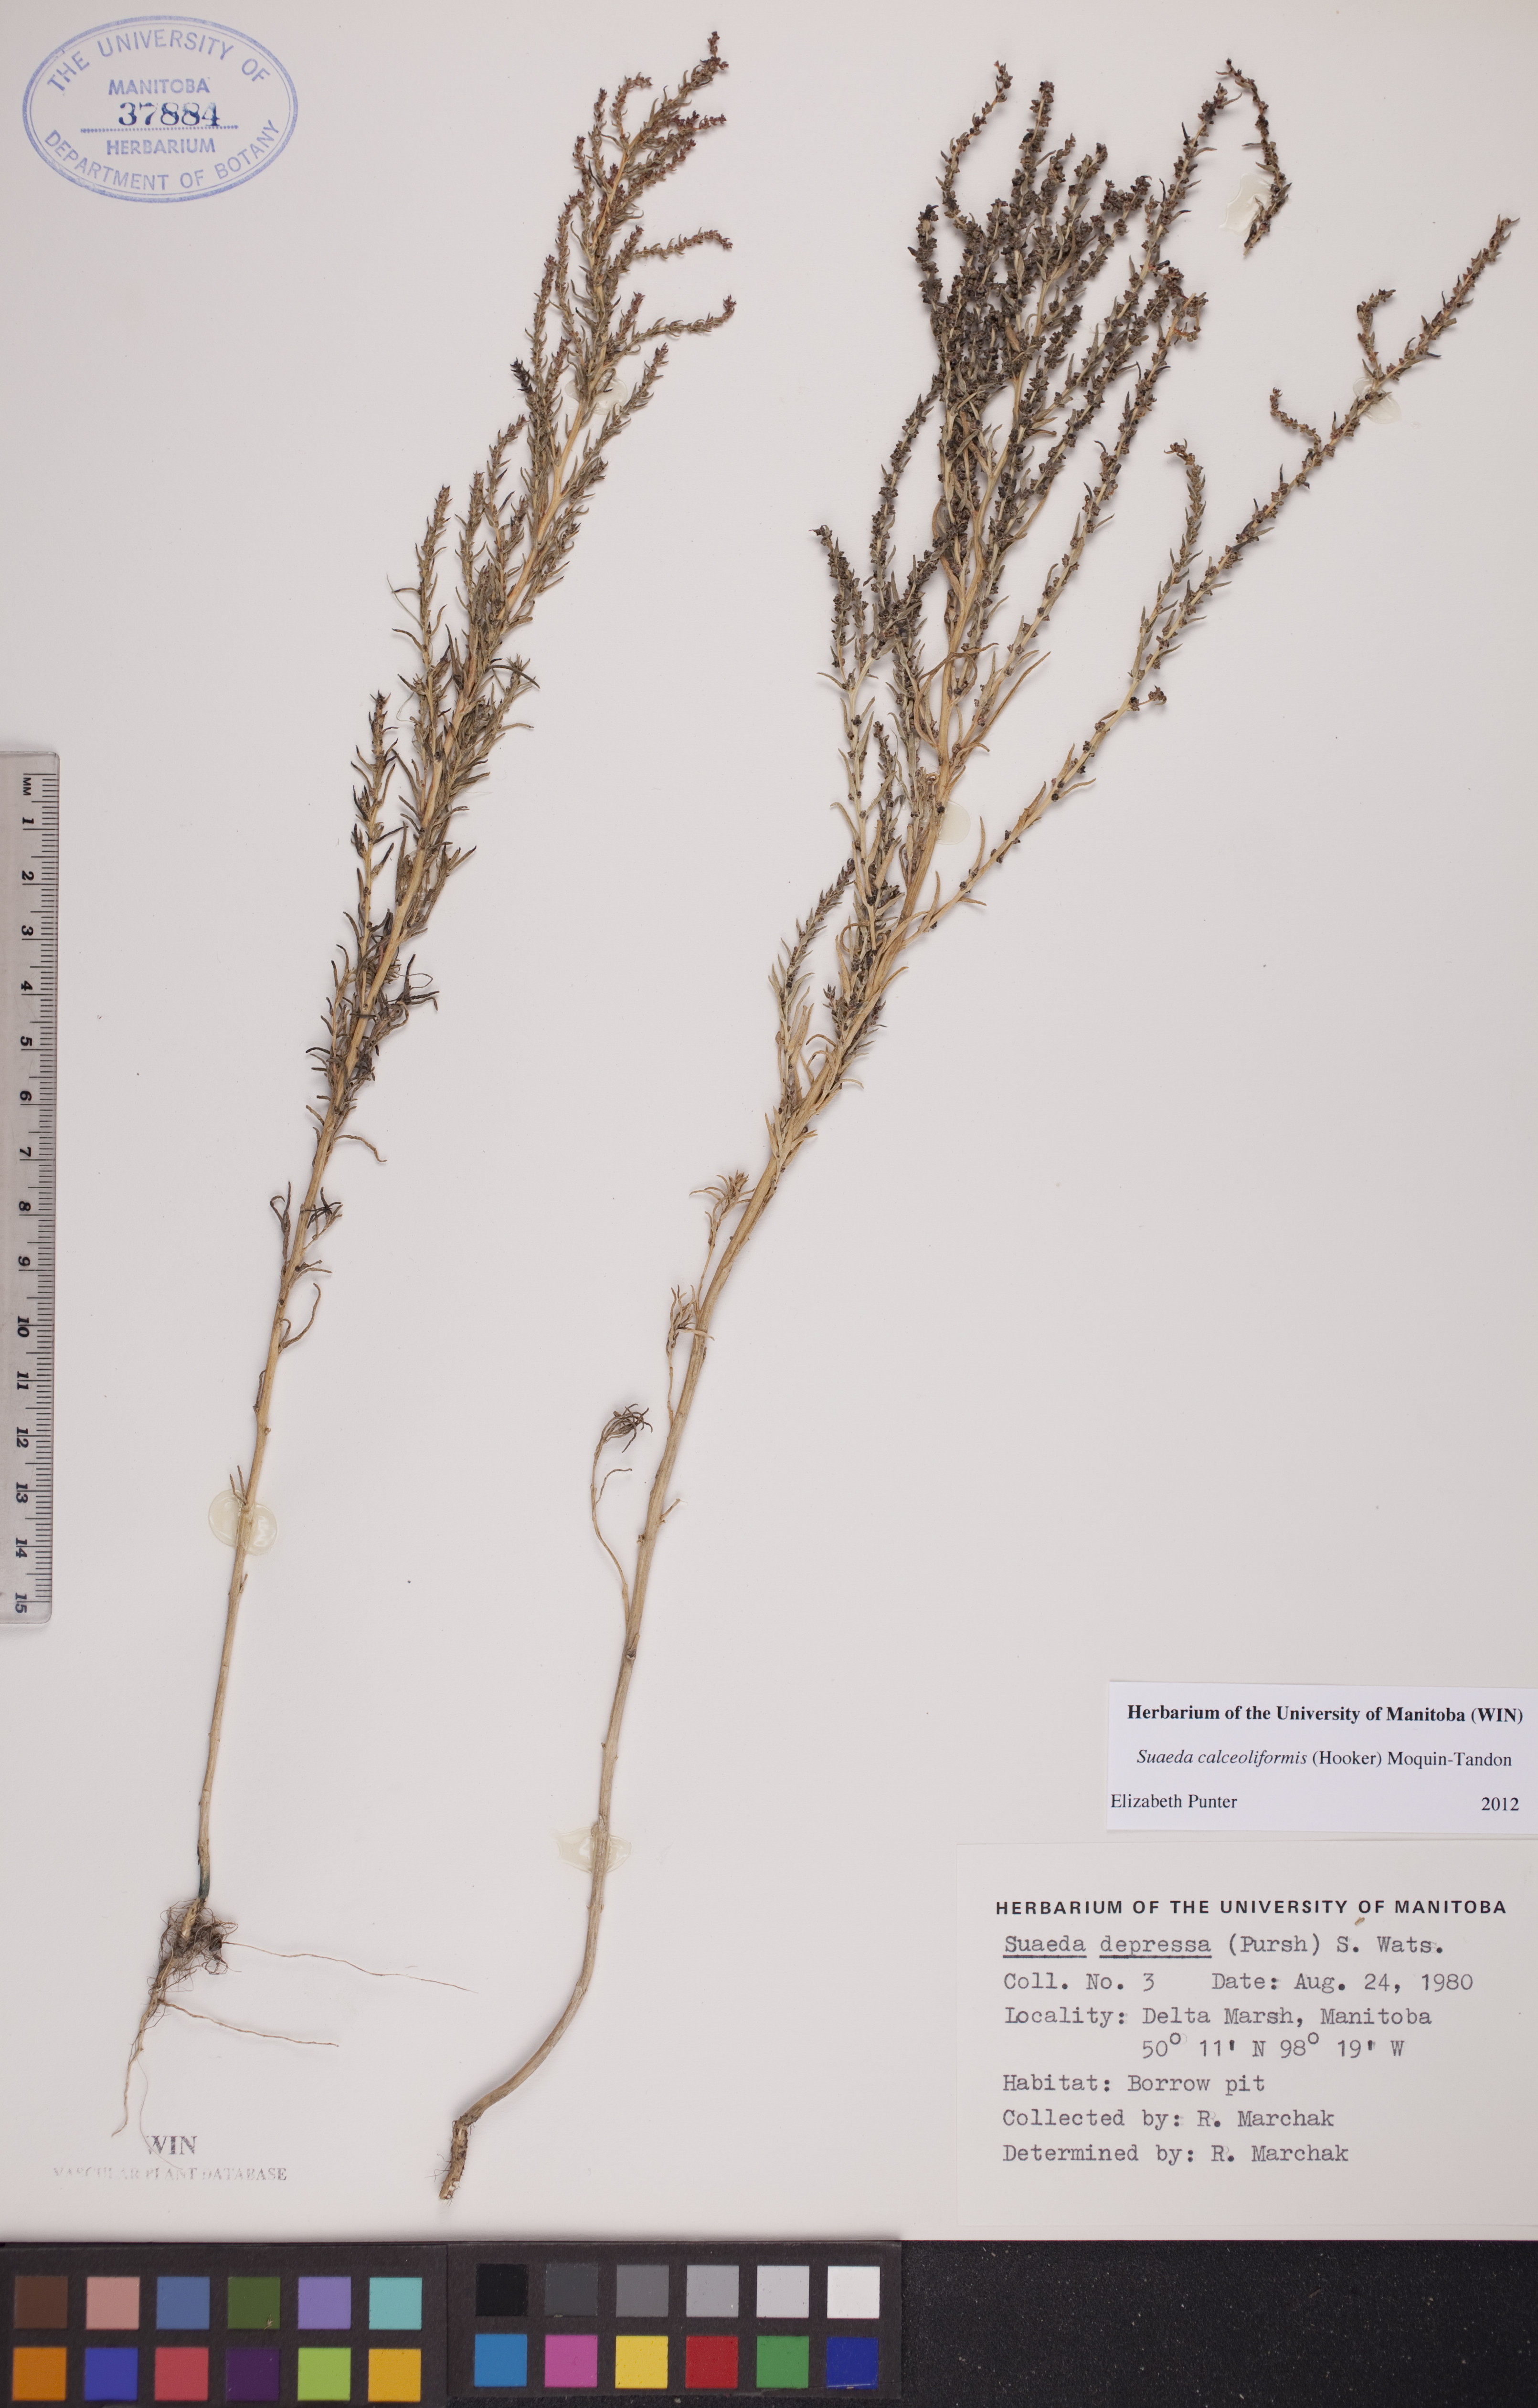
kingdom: Plantae
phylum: Tracheophyta
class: Magnoliopsida
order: Caryophyllales
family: Amaranthaceae
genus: Suaeda
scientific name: Suaeda calceoliformis
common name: Pursh's seepweed
